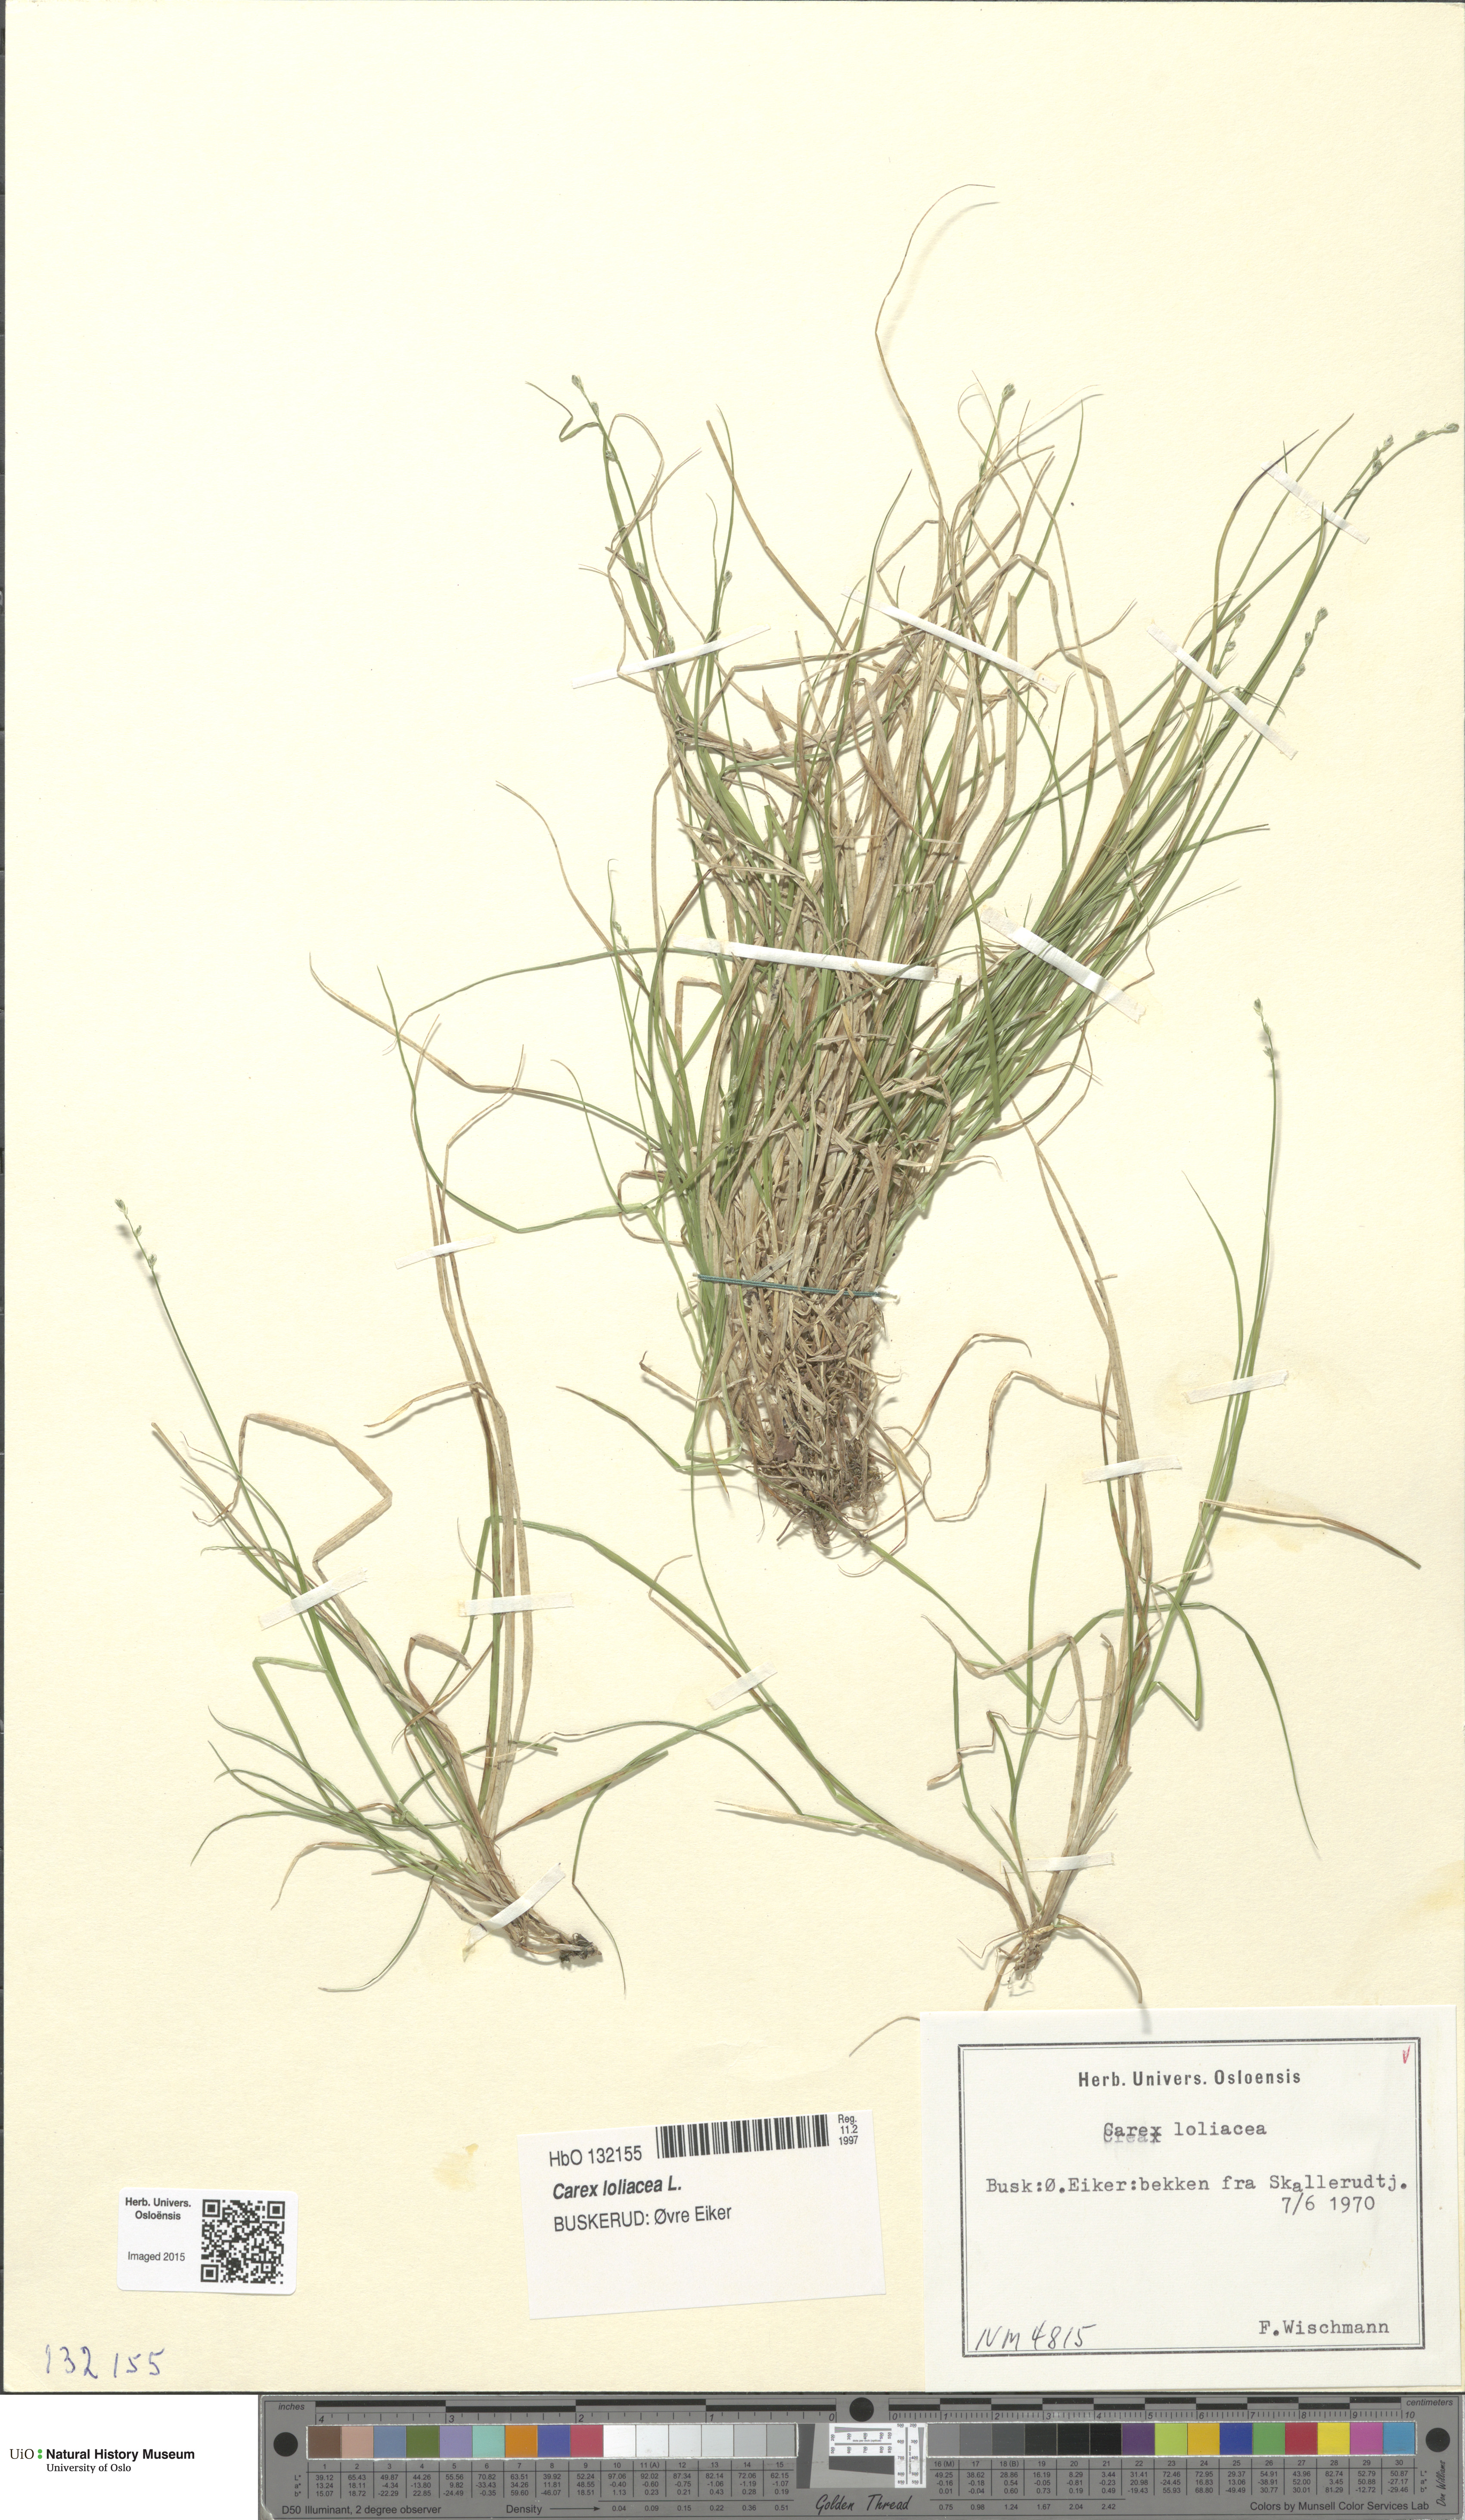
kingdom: Plantae
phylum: Tracheophyta
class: Liliopsida
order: Poales
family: Cyperaceae
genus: Carex
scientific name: Carex loliacea
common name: Ryegrass sedge
